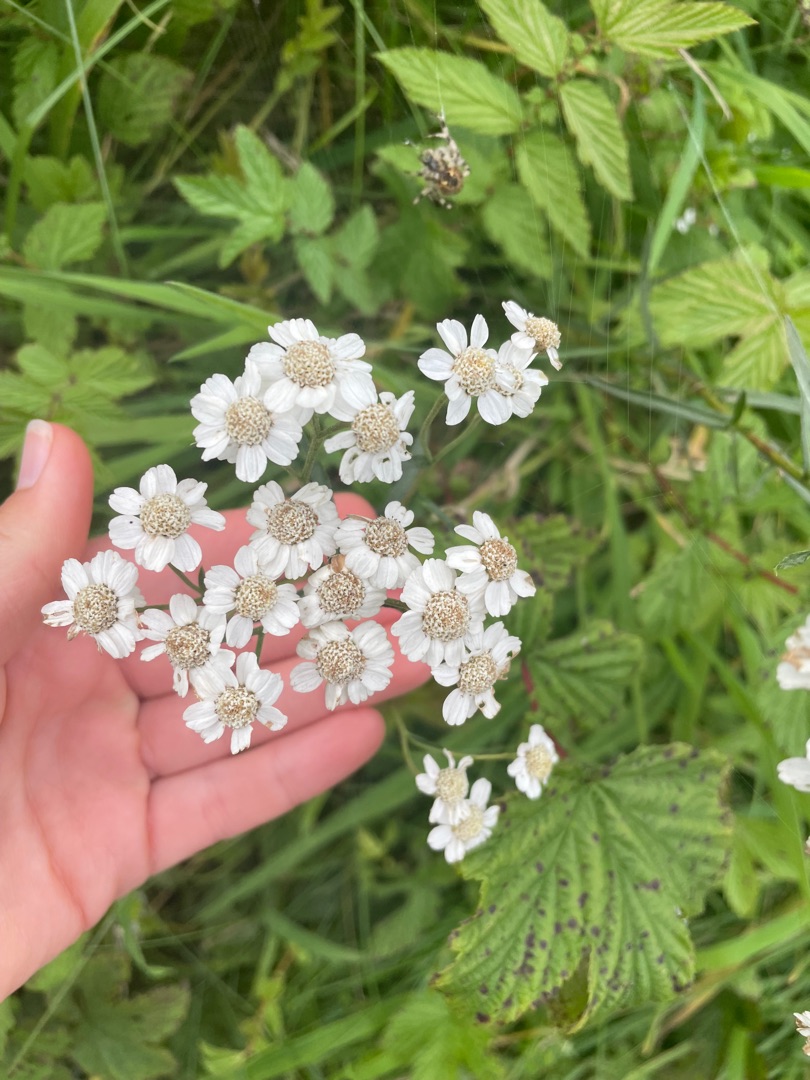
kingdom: Plantae
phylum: Tracheophyta
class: Magnoliopsida
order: Asterales
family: Asteraceae
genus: Achillea
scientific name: Achillea ptarmica
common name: Nyse-røllike
